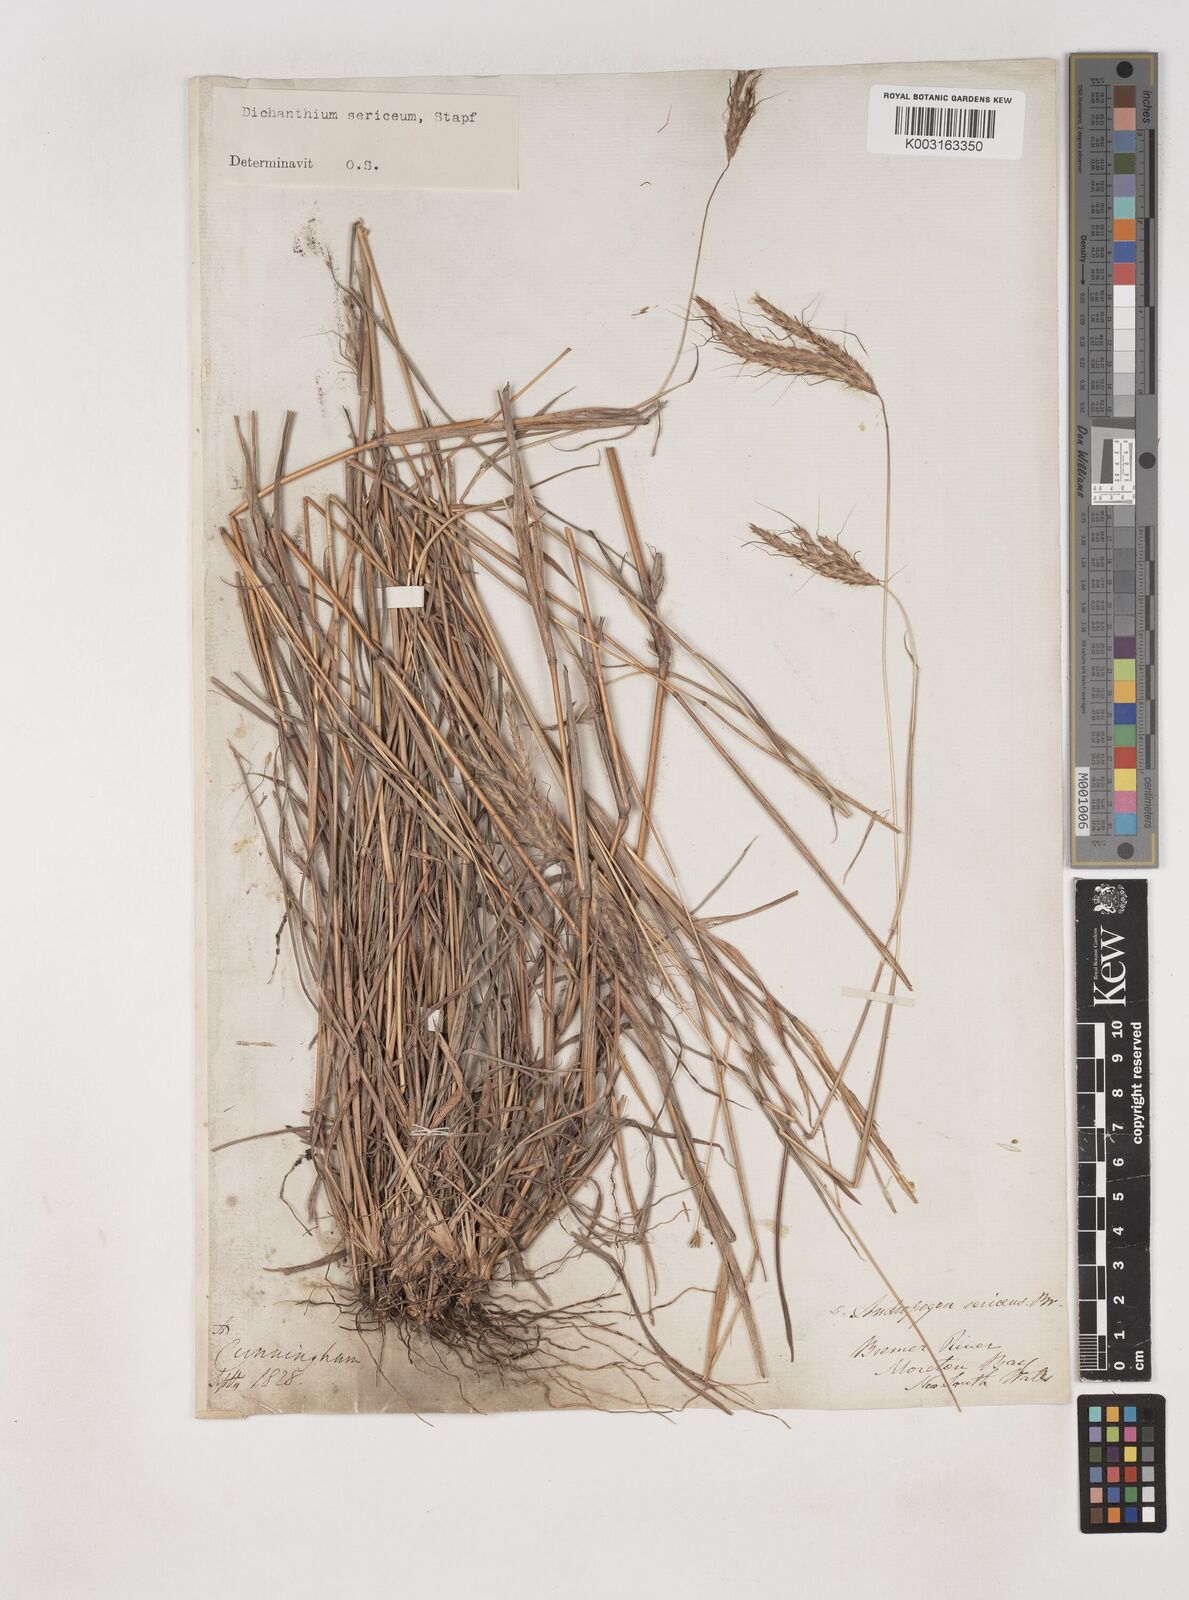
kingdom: Plantae
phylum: Tracheophyta
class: Liliopsida
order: Poales
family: Poaceae
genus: Dichanthium
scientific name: Dichanthium sericeum
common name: Silky bluestem
